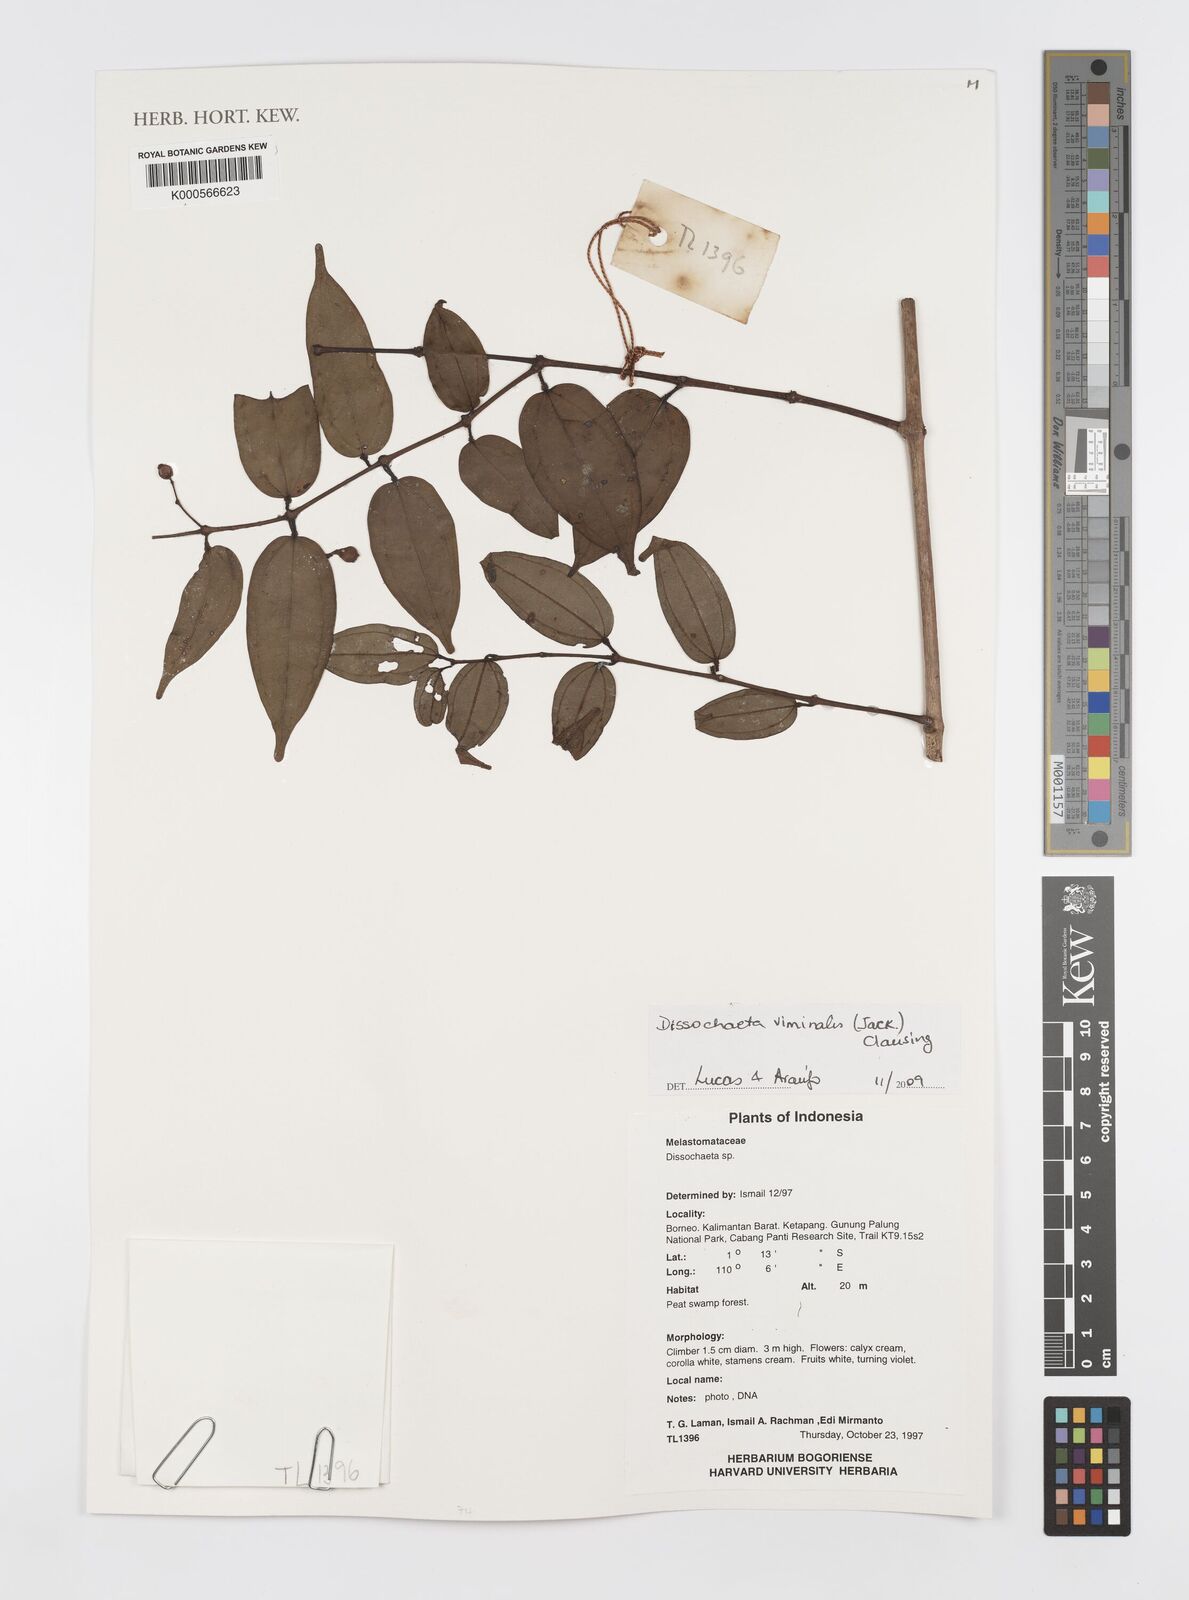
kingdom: Plantae
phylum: Tracheophyta
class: Magnoliopsida
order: Myrtales
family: Melastomataceae
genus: Diplectria
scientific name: Diplectria viminalis
